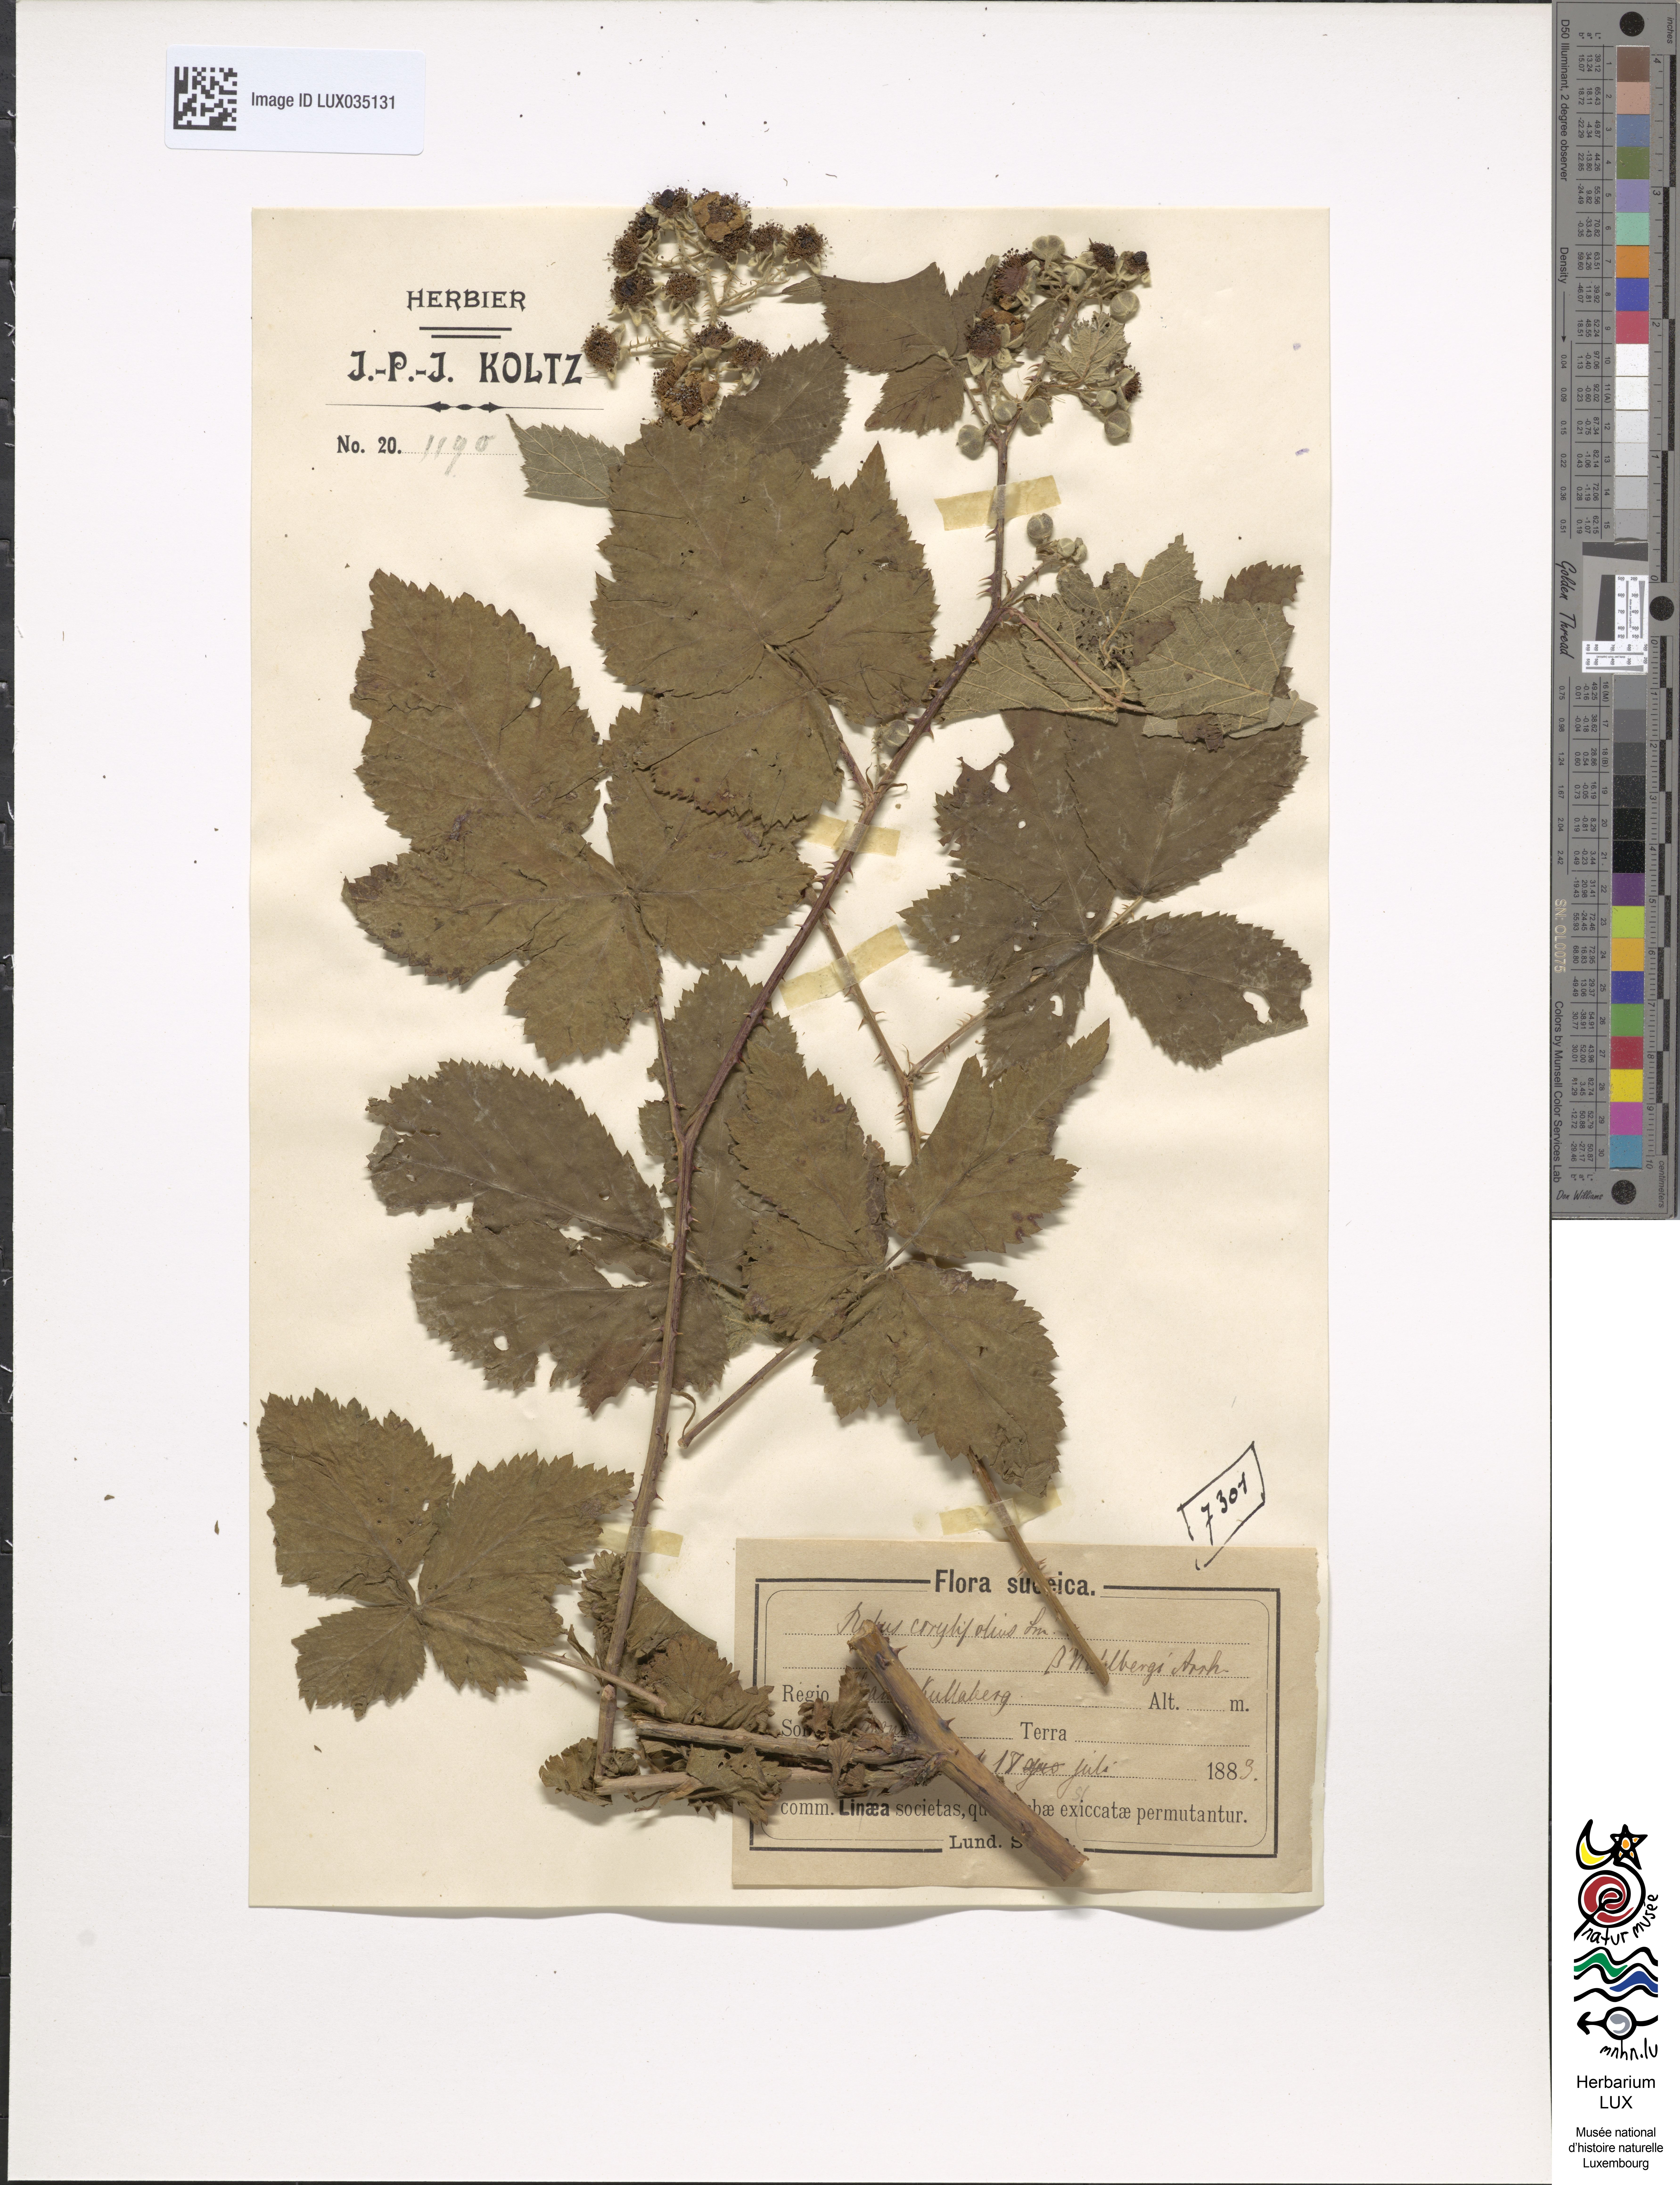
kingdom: Plantae
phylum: Tracheophyta
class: Magnoliopsida
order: Rosales
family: Rosaceae
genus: Rubus
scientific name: Rubus corylifolius
